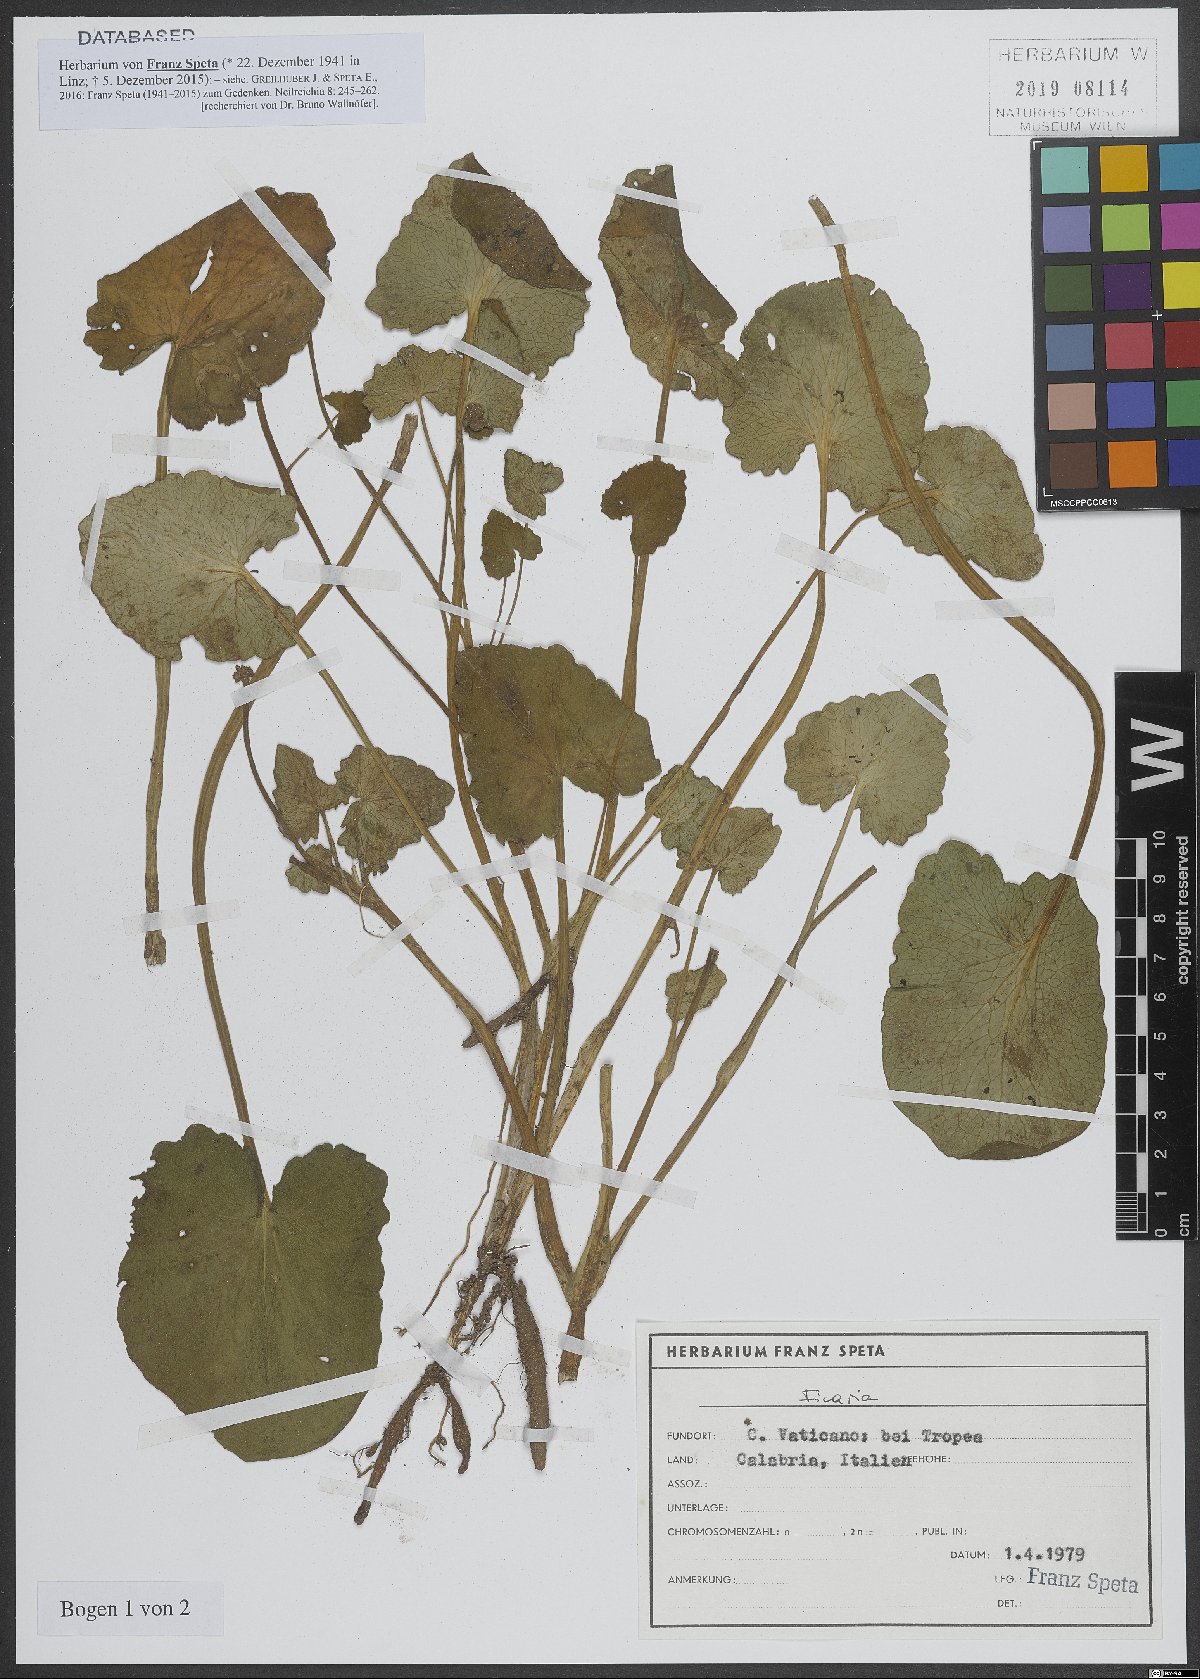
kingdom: Plantae
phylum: Tracheophyta
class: Magnoliopsida
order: Ranunculales
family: Ranunculaceae
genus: Ficaria
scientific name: Ficaria
